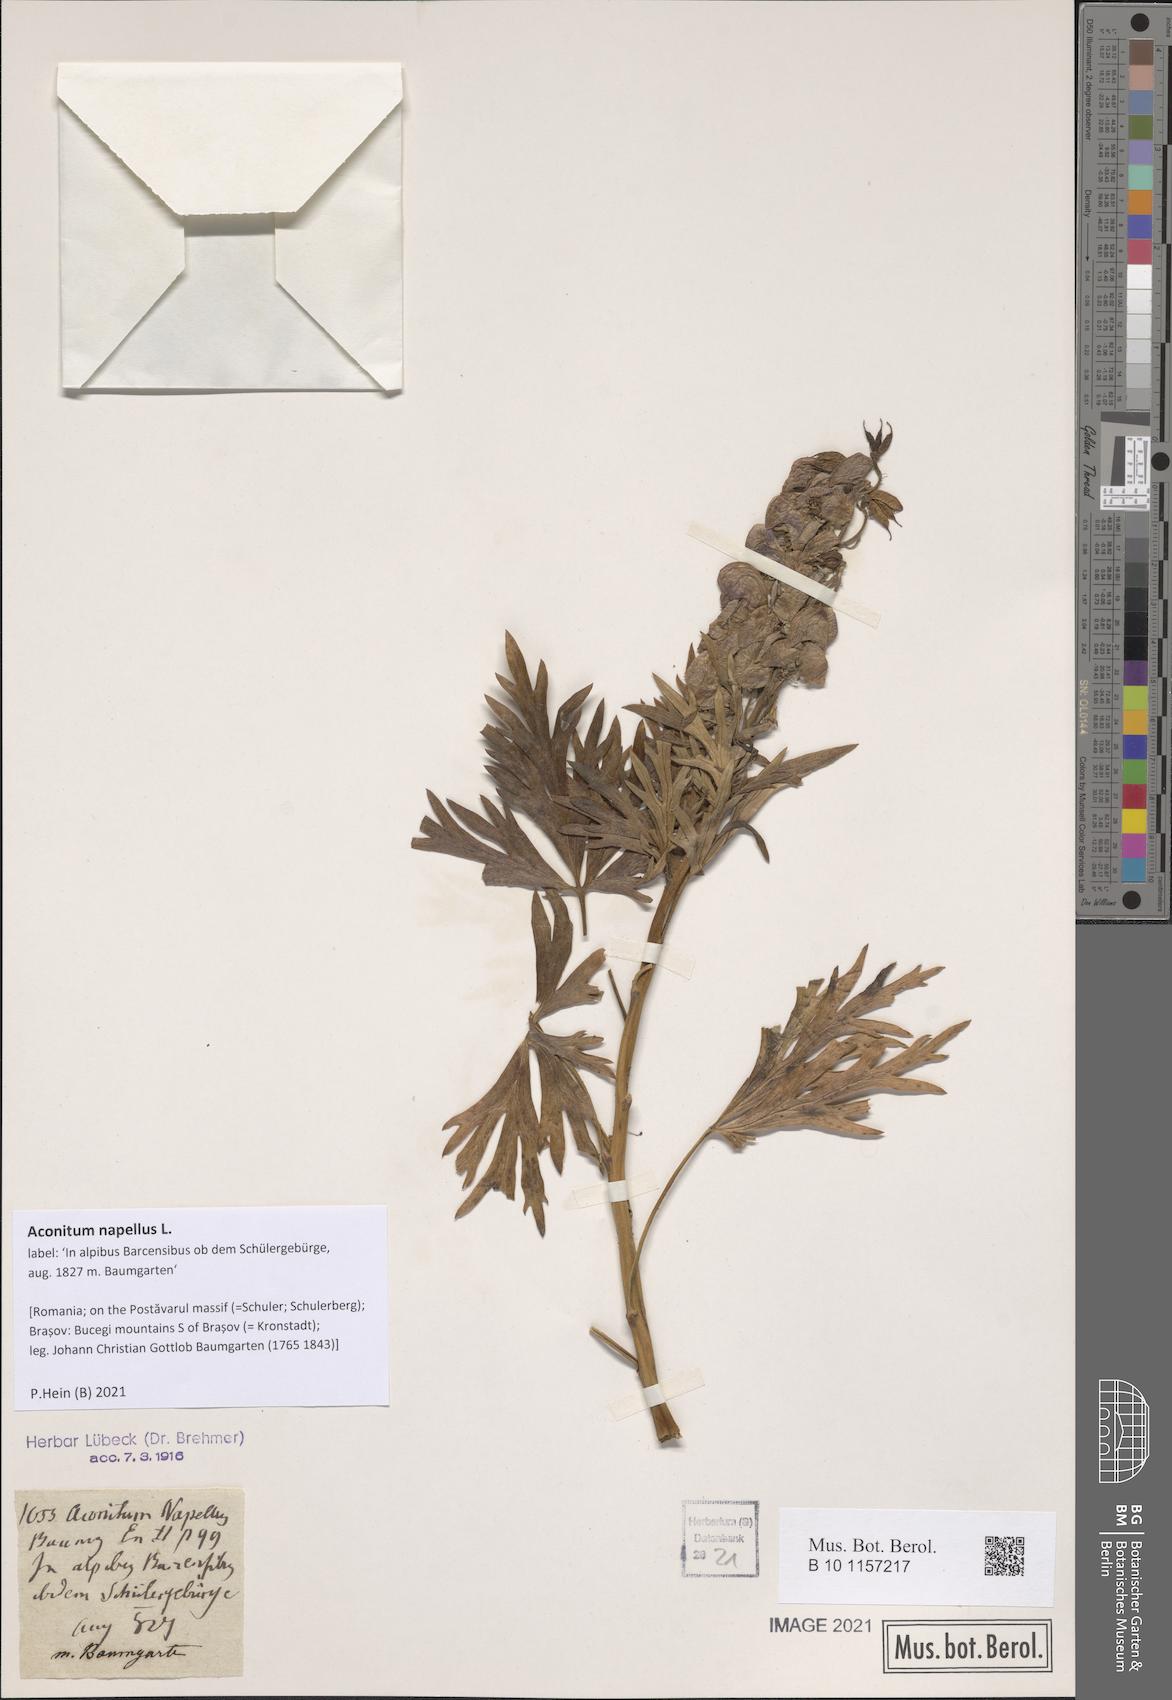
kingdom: Plantae
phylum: Tracheophyta
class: Magnoliopsida
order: Ranunculales
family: Ranunculaceae
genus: Aconitum
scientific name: Aconitum napellus
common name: Garden monkshood
